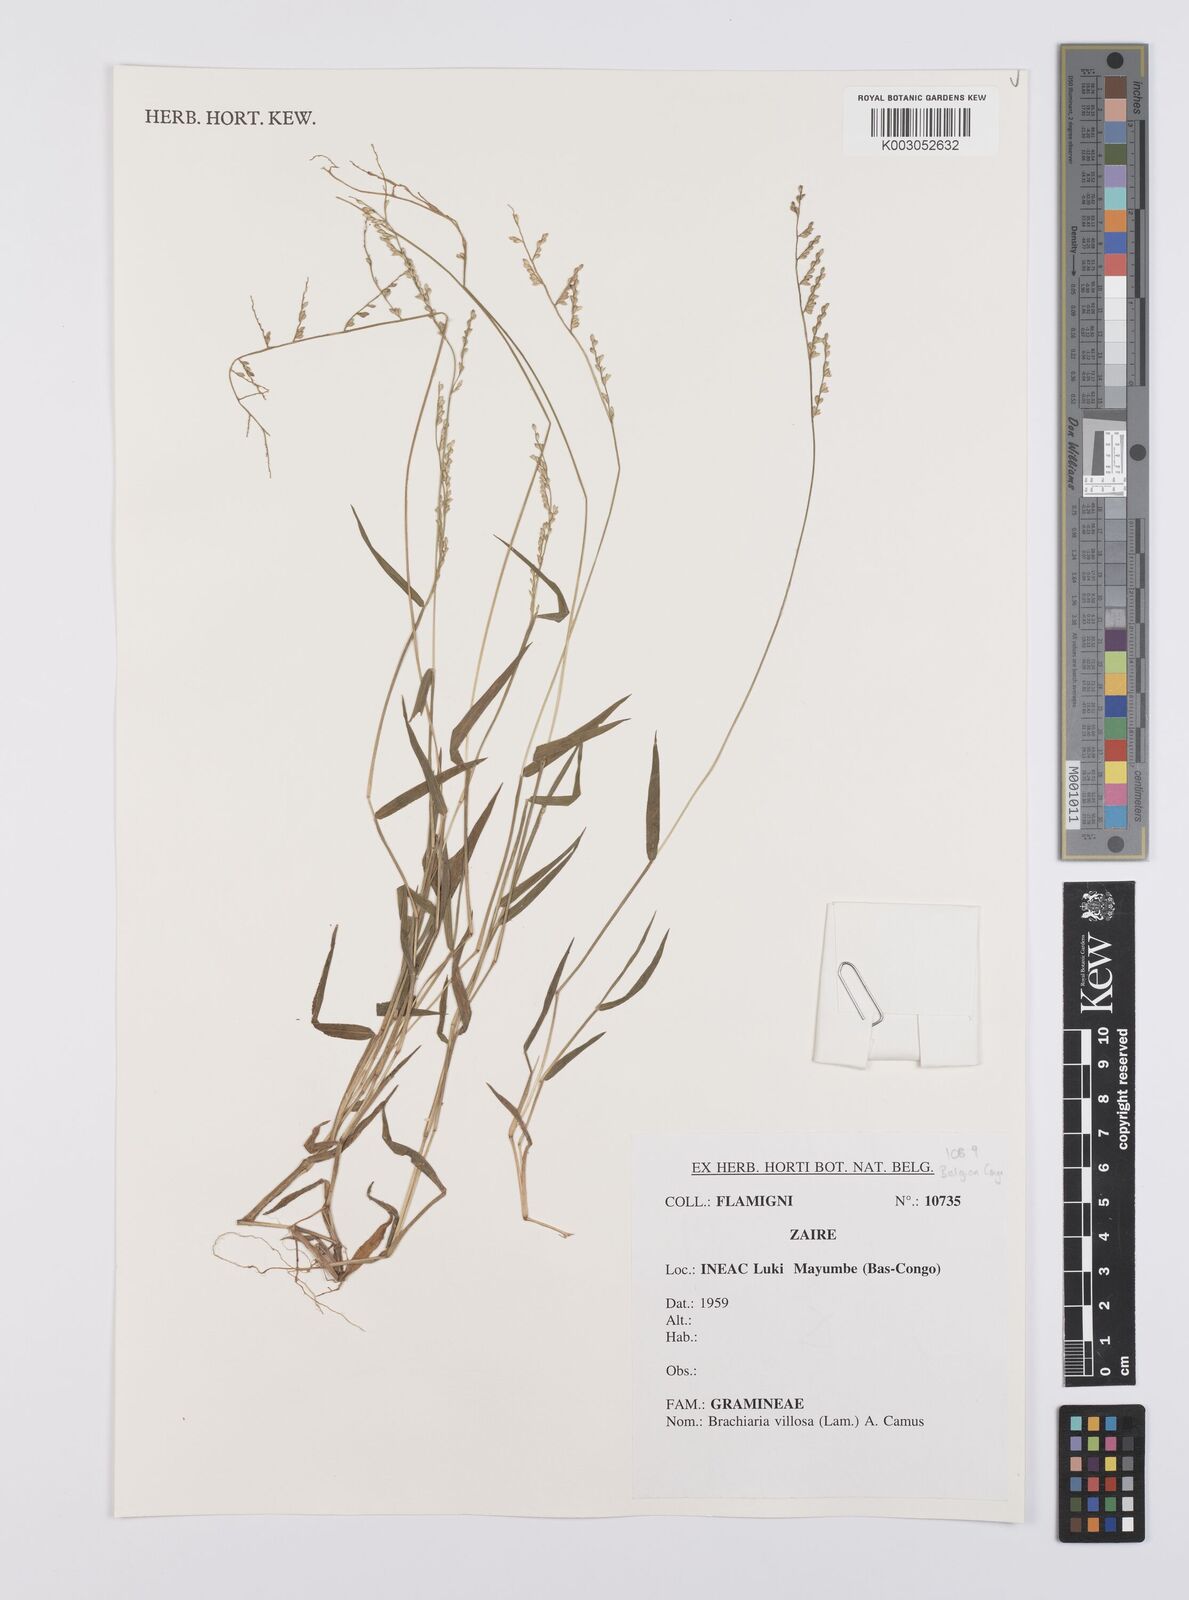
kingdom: Plantae
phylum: Tracheophyta
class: Liliopsida
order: Poales
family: Poaceae
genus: Urochloa
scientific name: Urochloa villosa
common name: Hairy signalgrass
